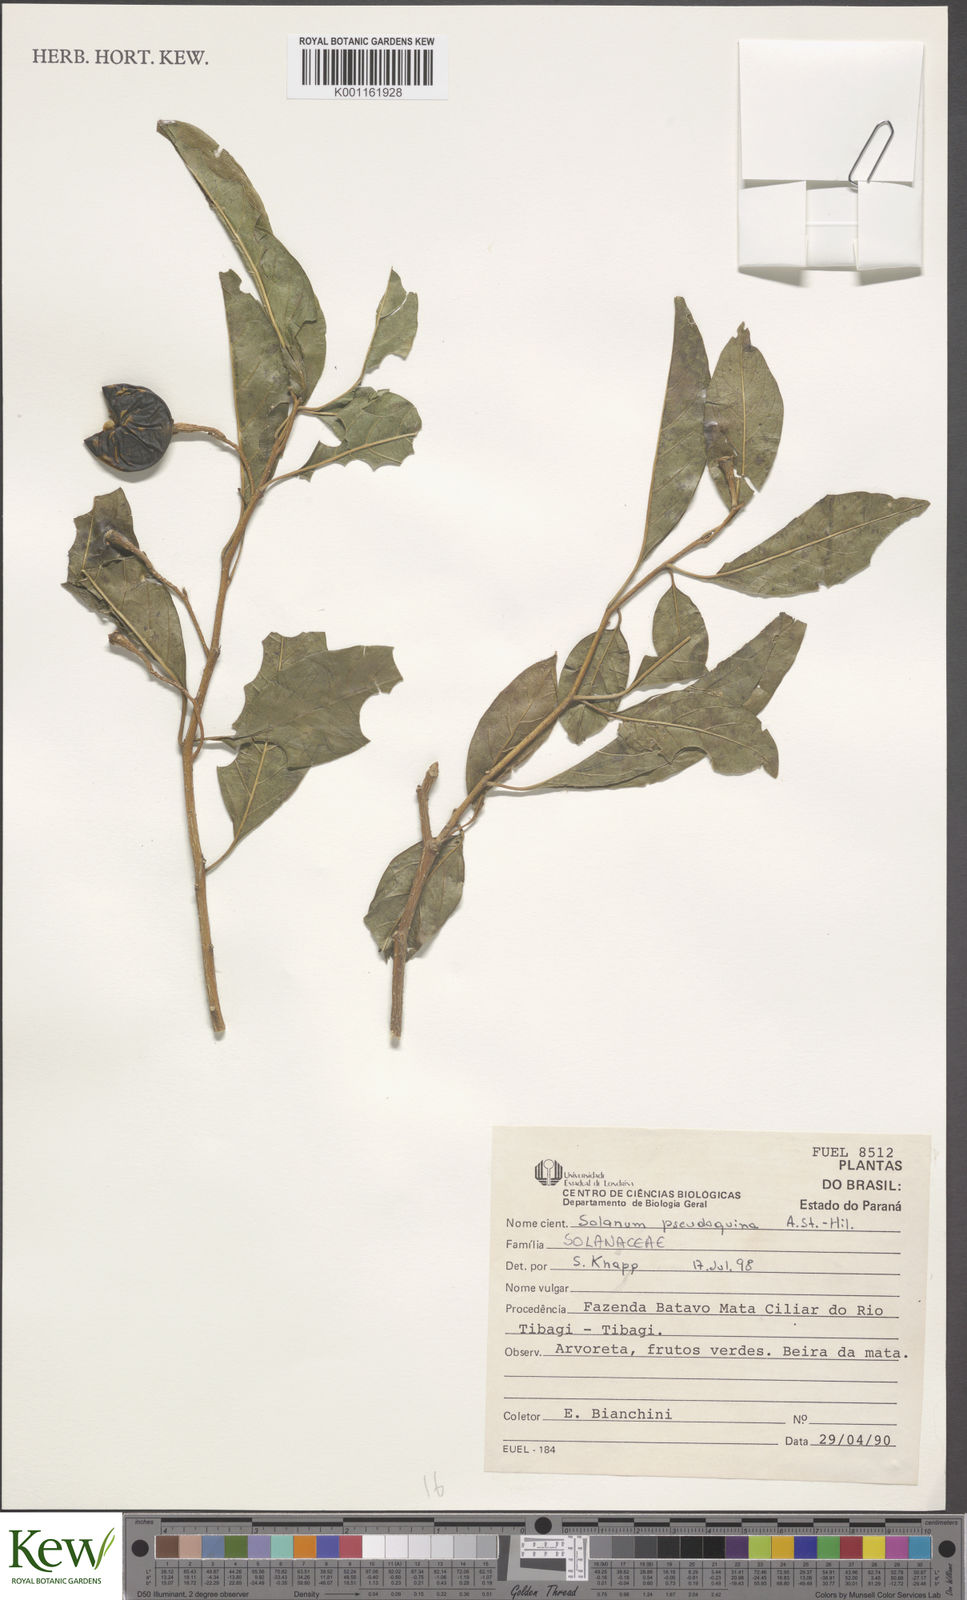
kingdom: Plantae
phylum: Tracheophyta
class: Magnoliopsida
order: Solanales
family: Solanaceae
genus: Solanum
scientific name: Solanum pseudoquina
